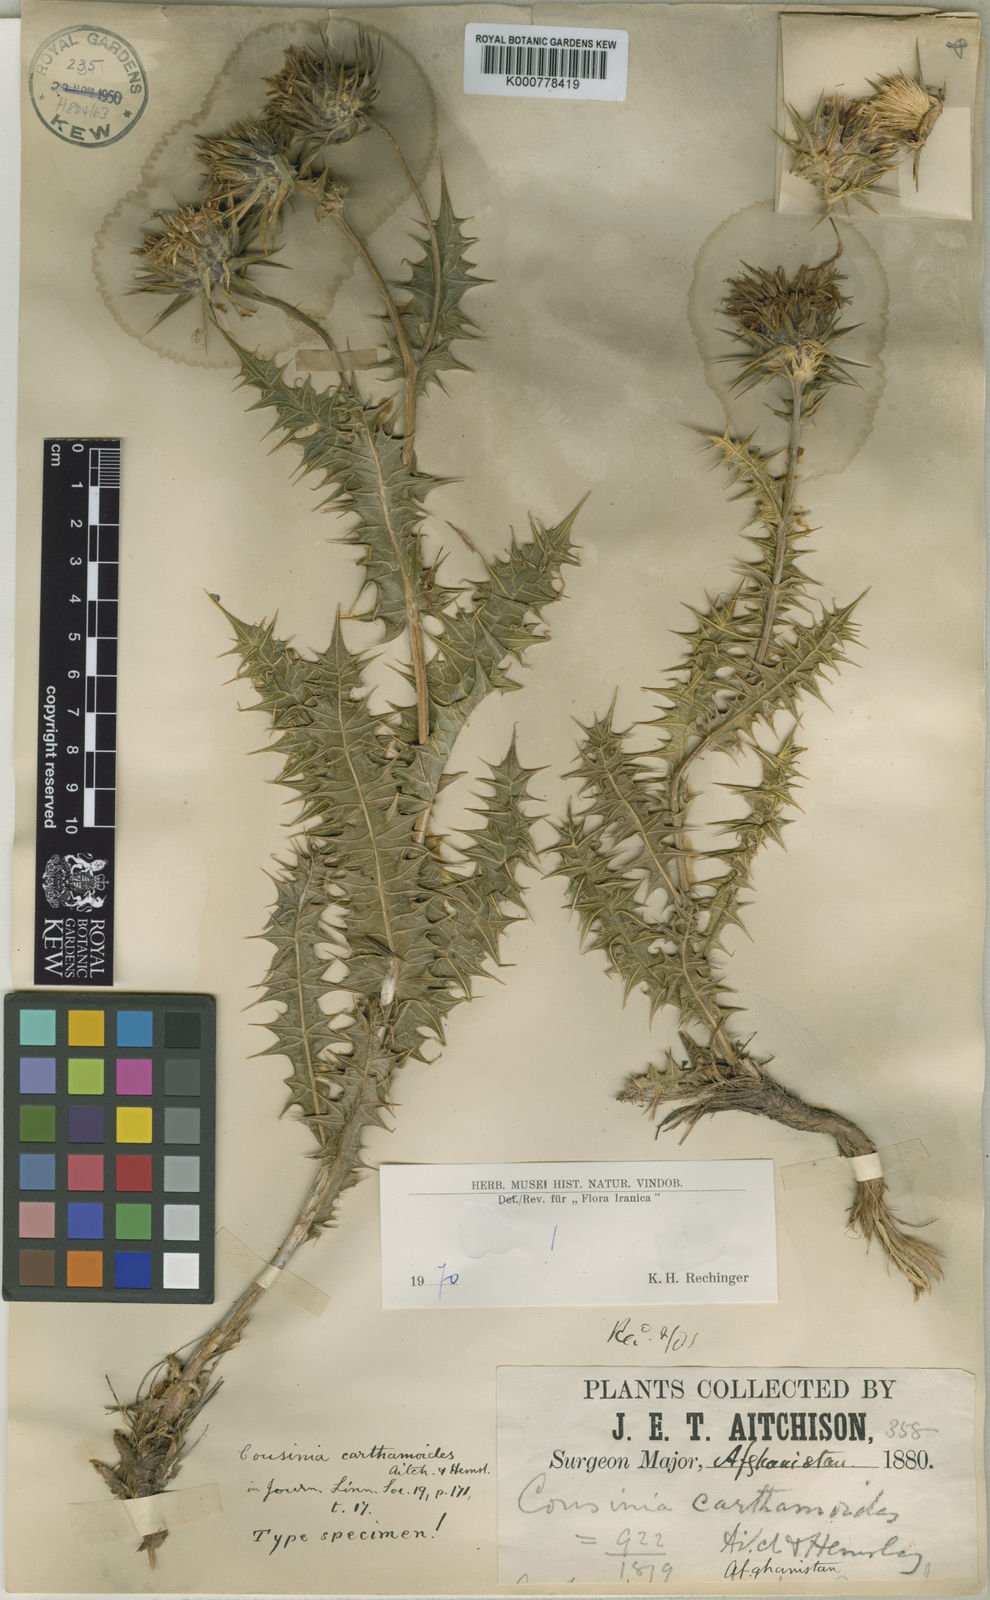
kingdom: Plantae
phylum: Tracheophyta
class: Magnoliopsida
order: Asterales
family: Asteraceae
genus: Cousinia
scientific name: Cousinia carthamoides
